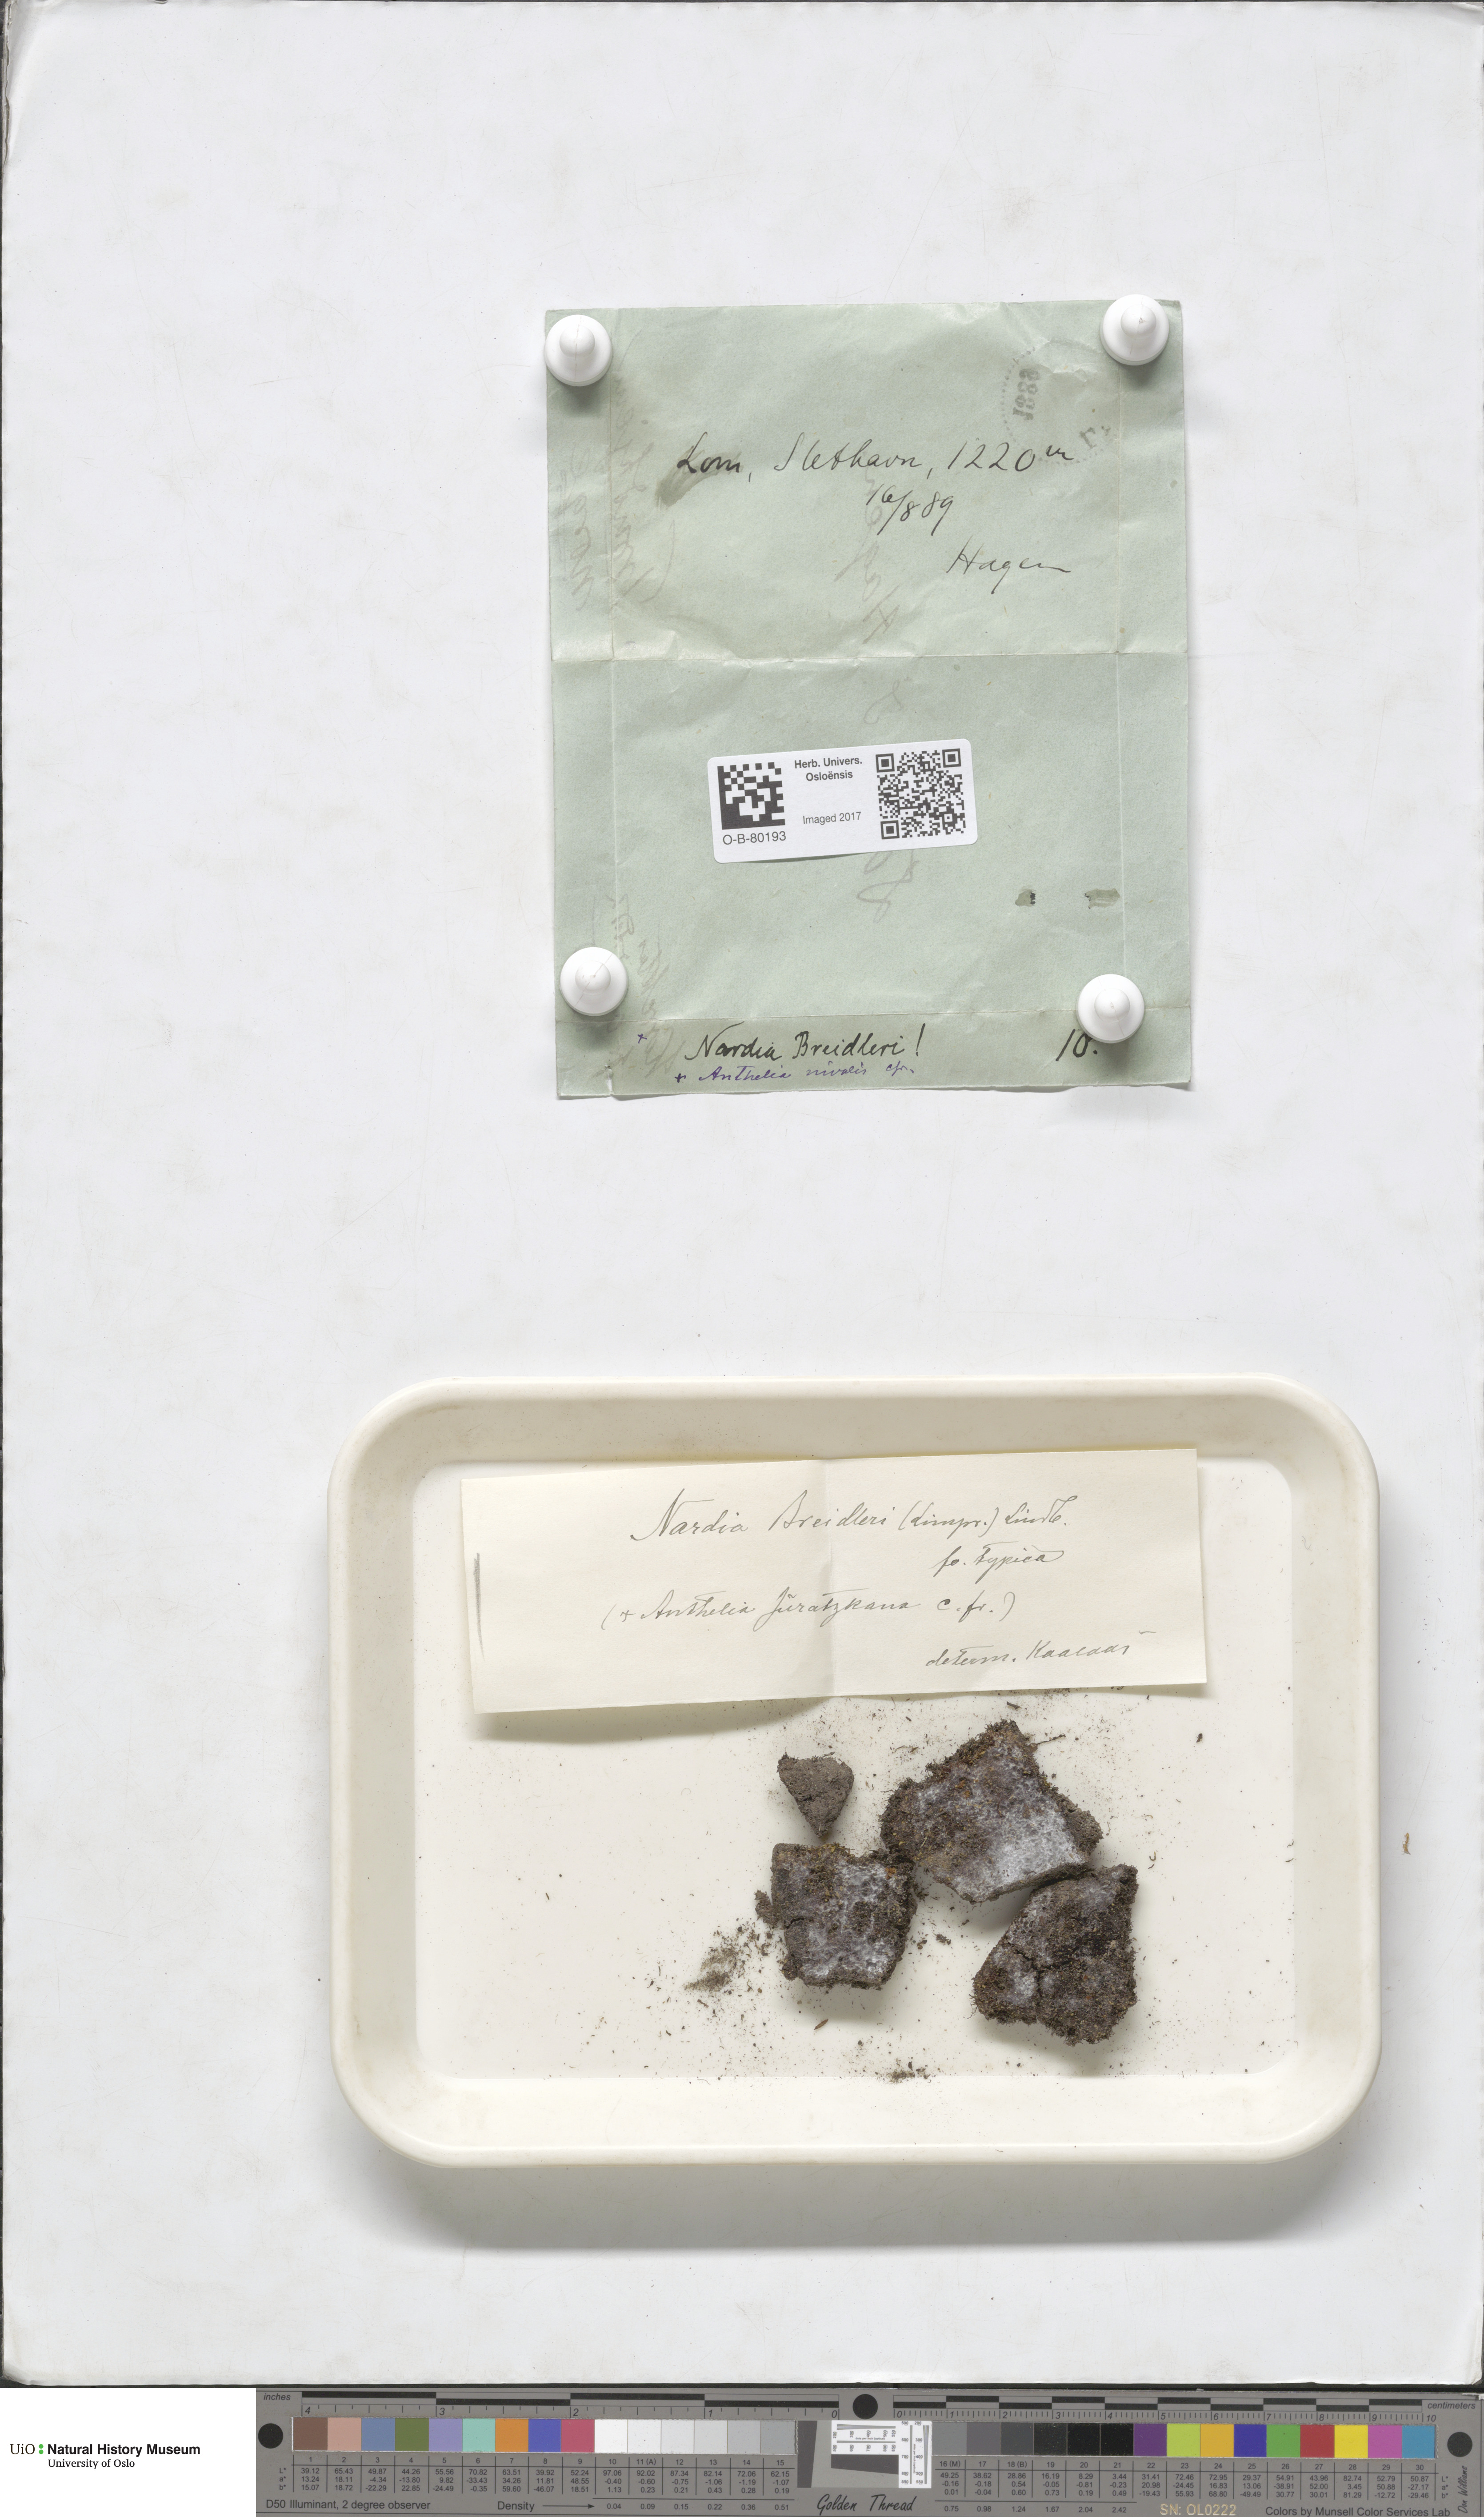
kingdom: Plantae
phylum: Marchantiophyta
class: Jungermanniopsida
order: Jungermanniales
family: Gymnomitriaceae
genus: Nardia
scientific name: Nardia breidleri
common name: Book flapwort
